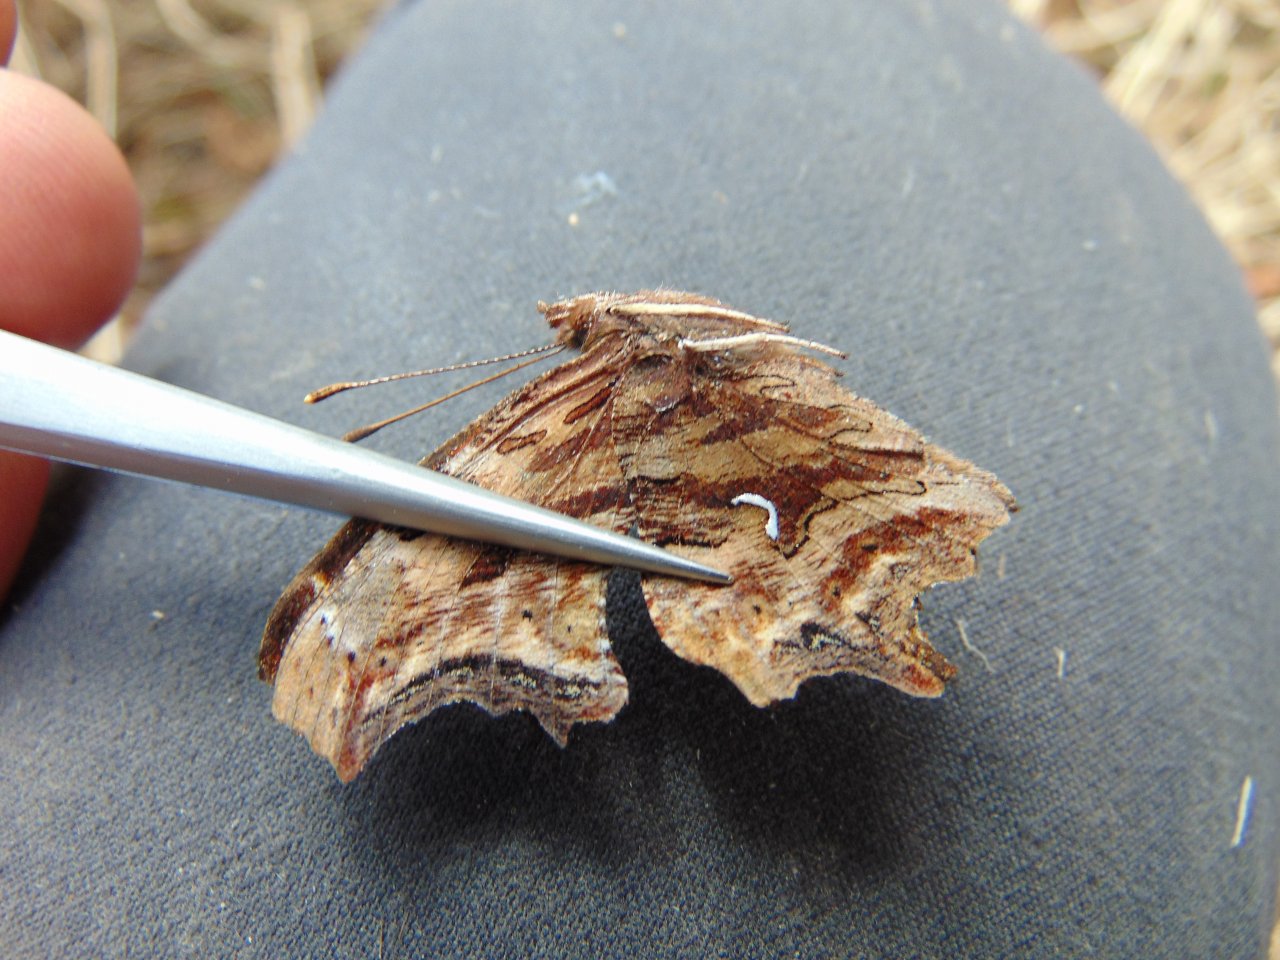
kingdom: Animalia
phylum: Arthropoda
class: Insecta
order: Lepidoptera
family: Nymphalidae
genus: Polygonia
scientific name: Polygonia satyrus
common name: Satyr Comma
